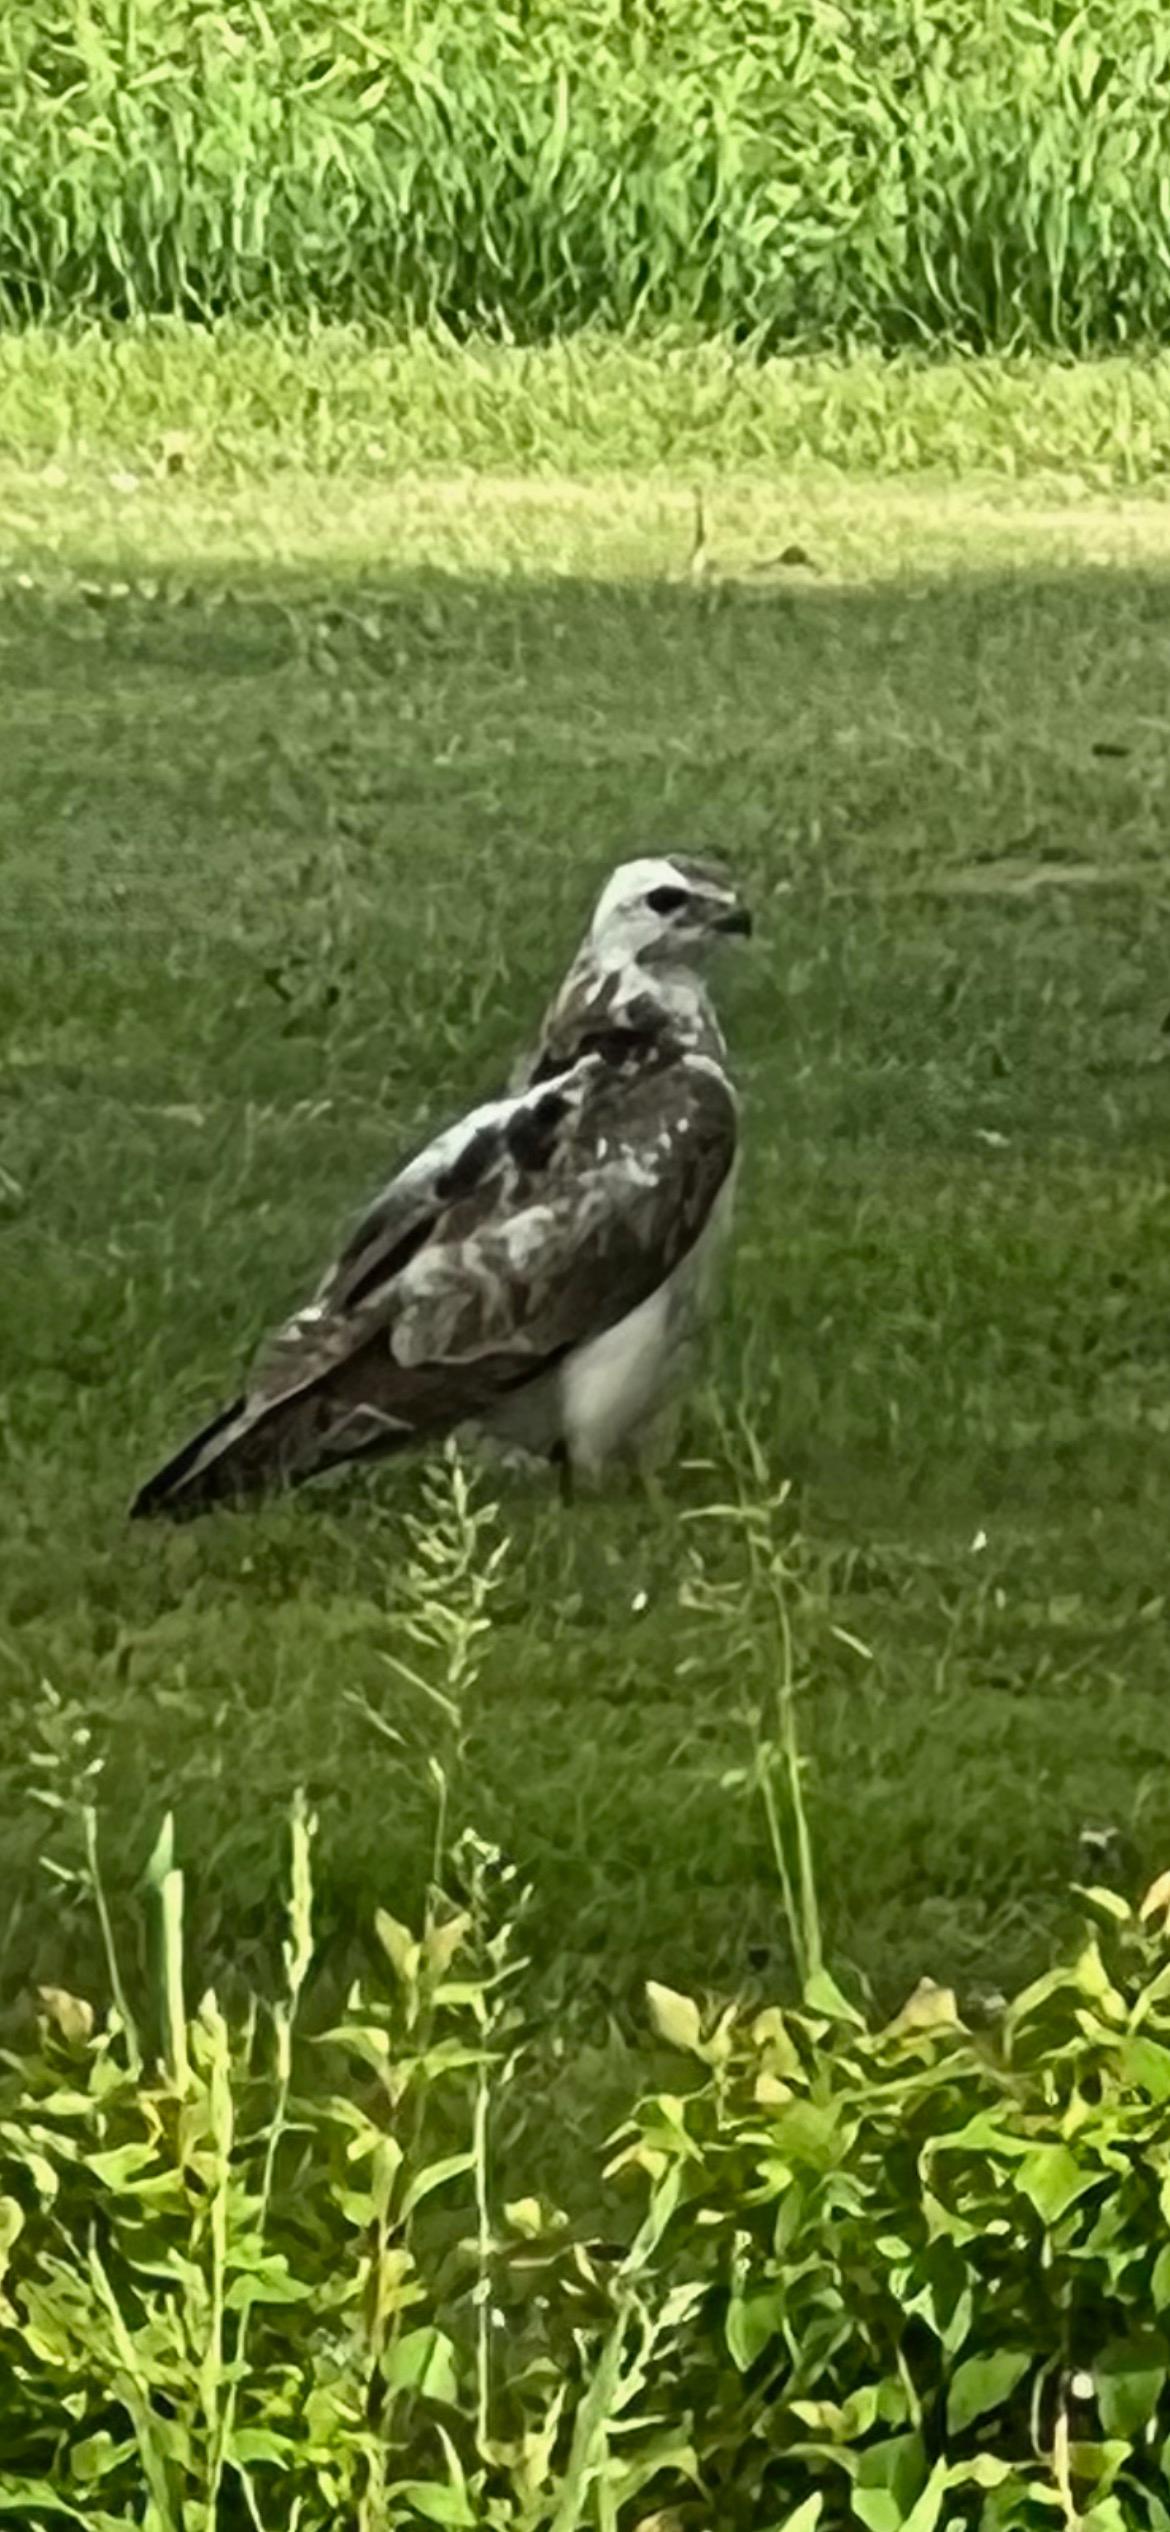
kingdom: Animalia
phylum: Chordata
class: Aves
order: Accipitriformes
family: Accipitridae
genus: Buteo
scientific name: Buteo buteo
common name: Musvåge
